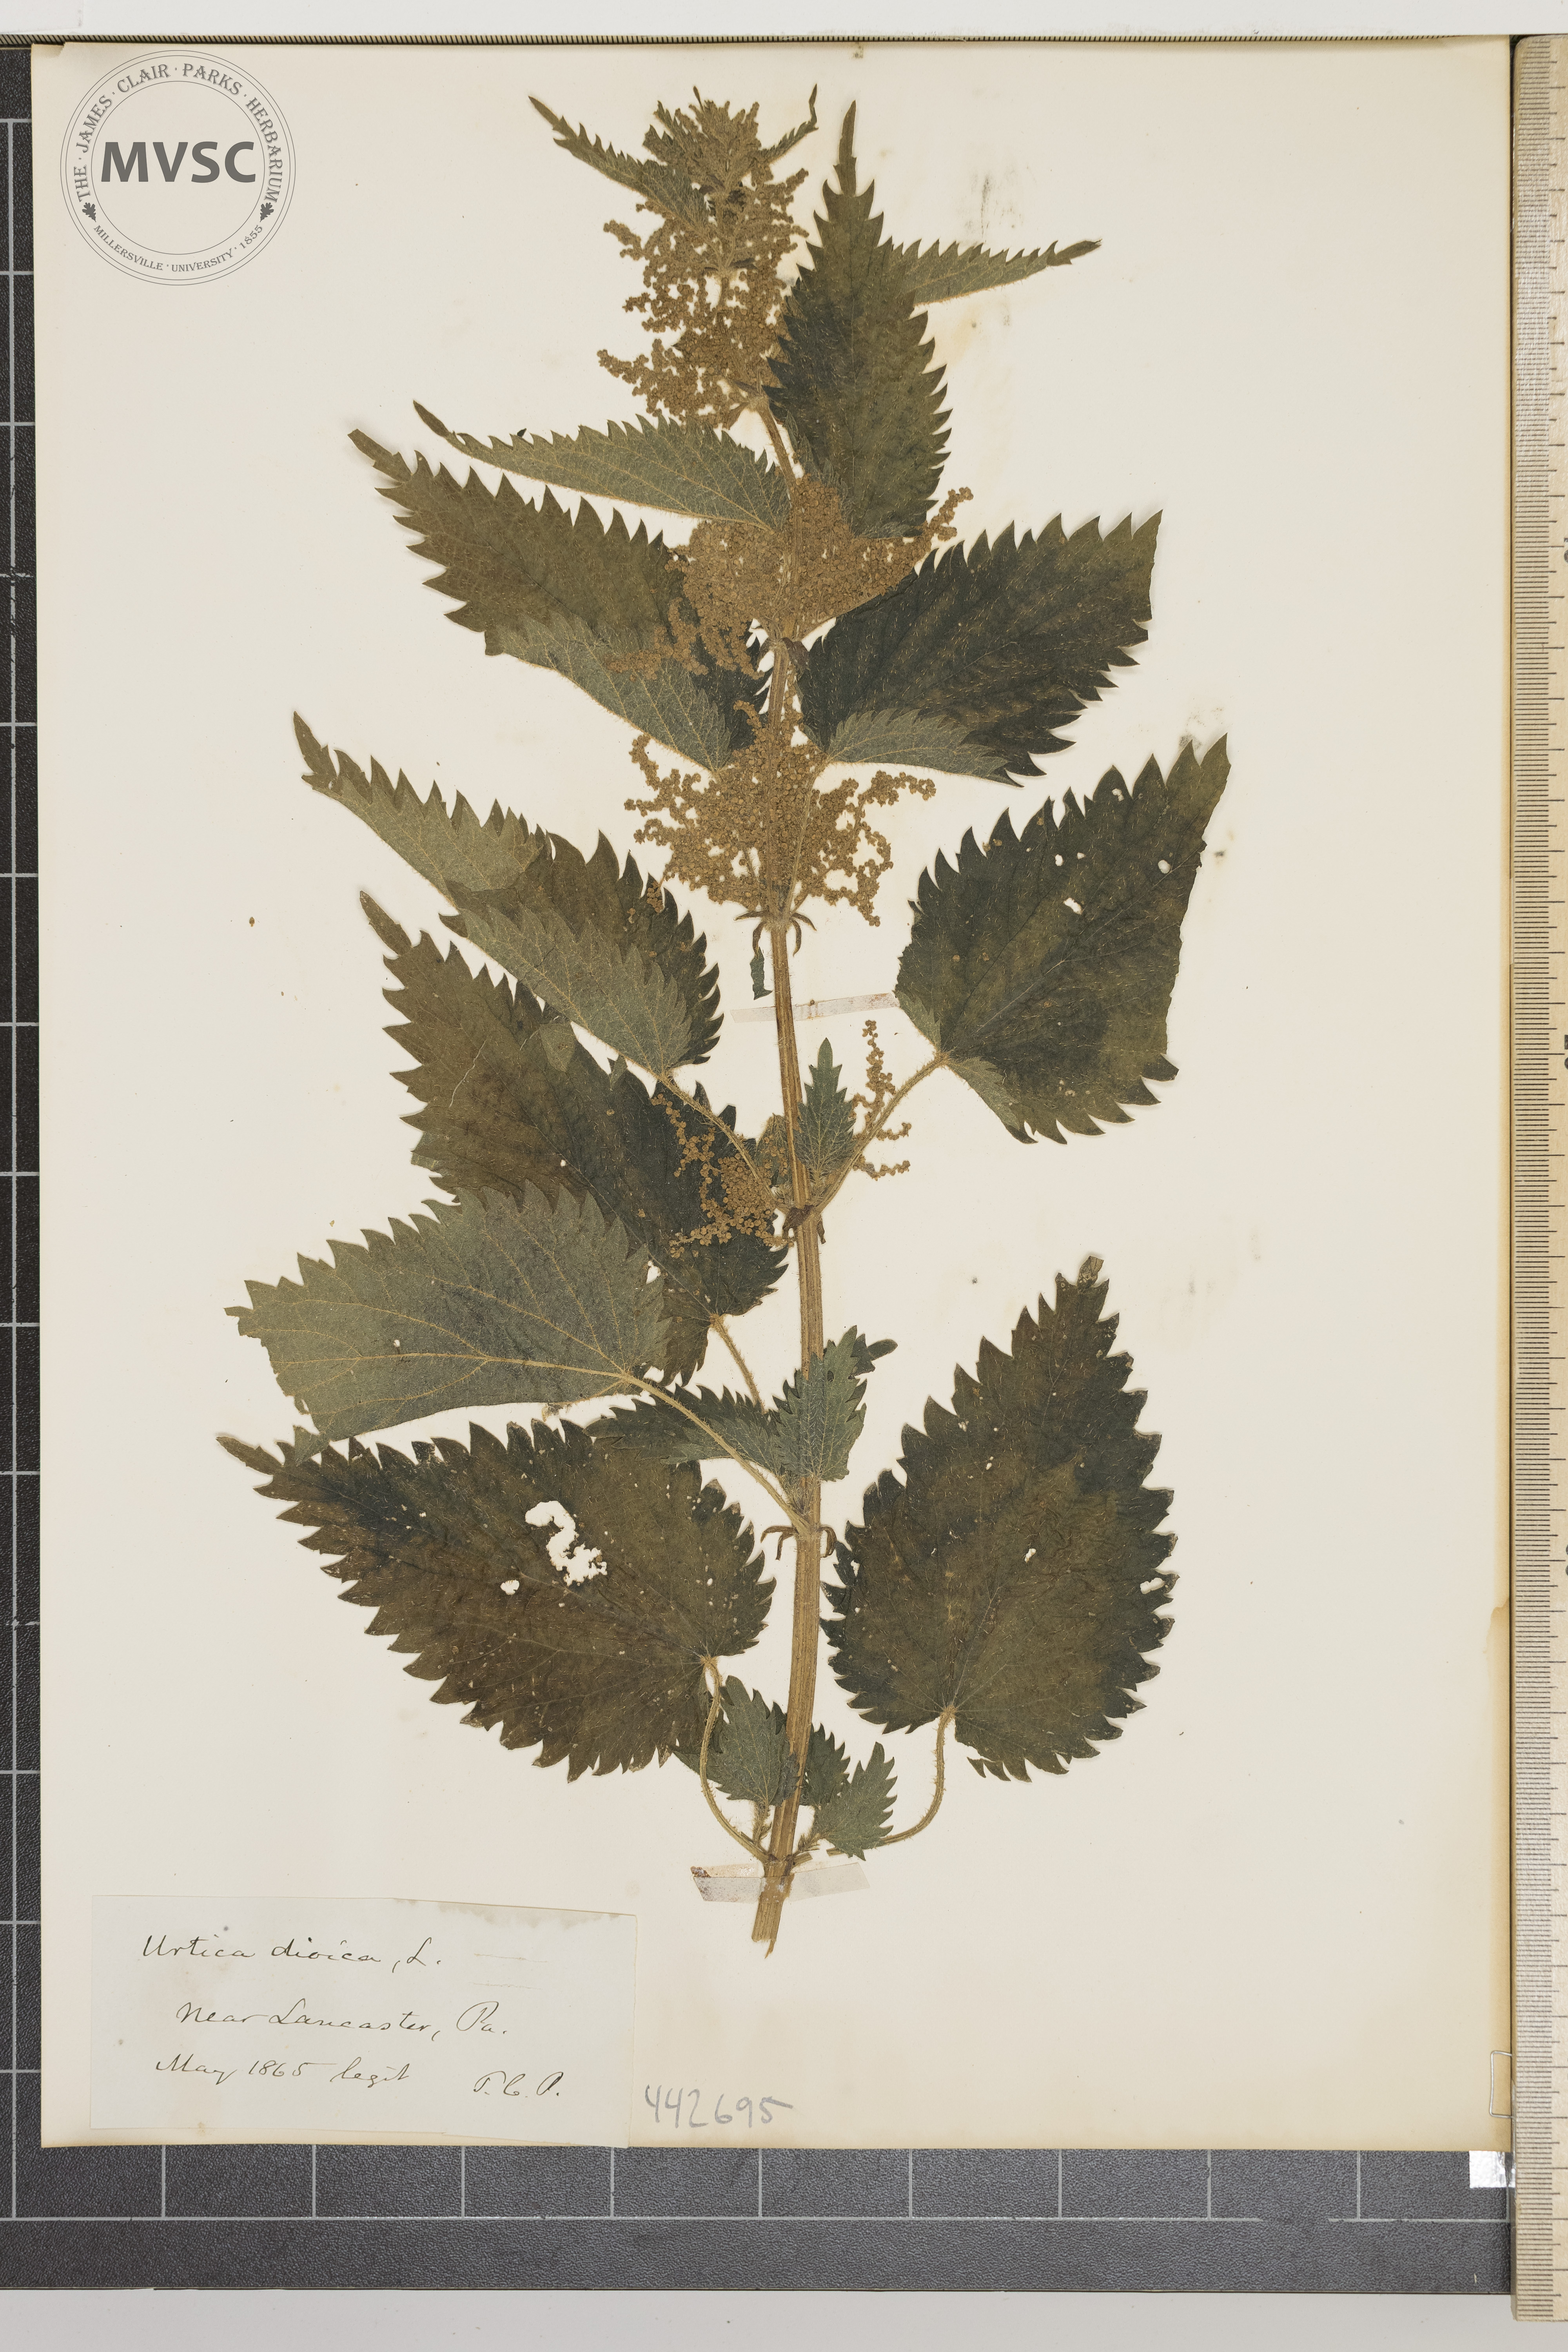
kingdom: Plantae
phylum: Tracheophyta
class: Magnoliopsida
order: Rosales
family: Urticaceae
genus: Urtica
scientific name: Urtica dioica
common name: Common nettle
